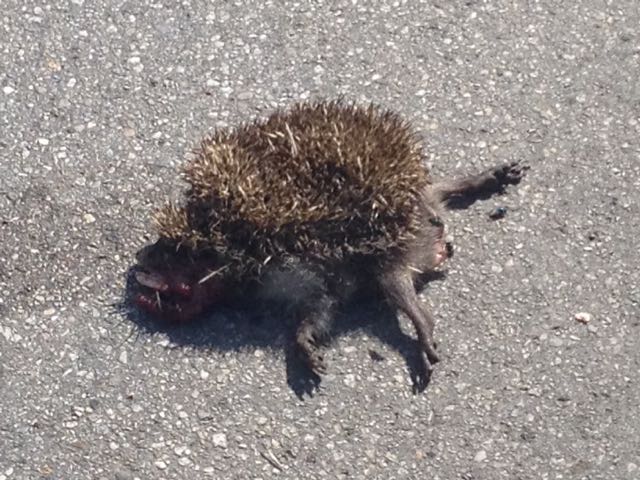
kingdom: Animalia
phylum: Chordata
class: Mammalia
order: Erinaceomorpha
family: Erinaceidae
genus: Erinaceus
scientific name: Erinaceus
